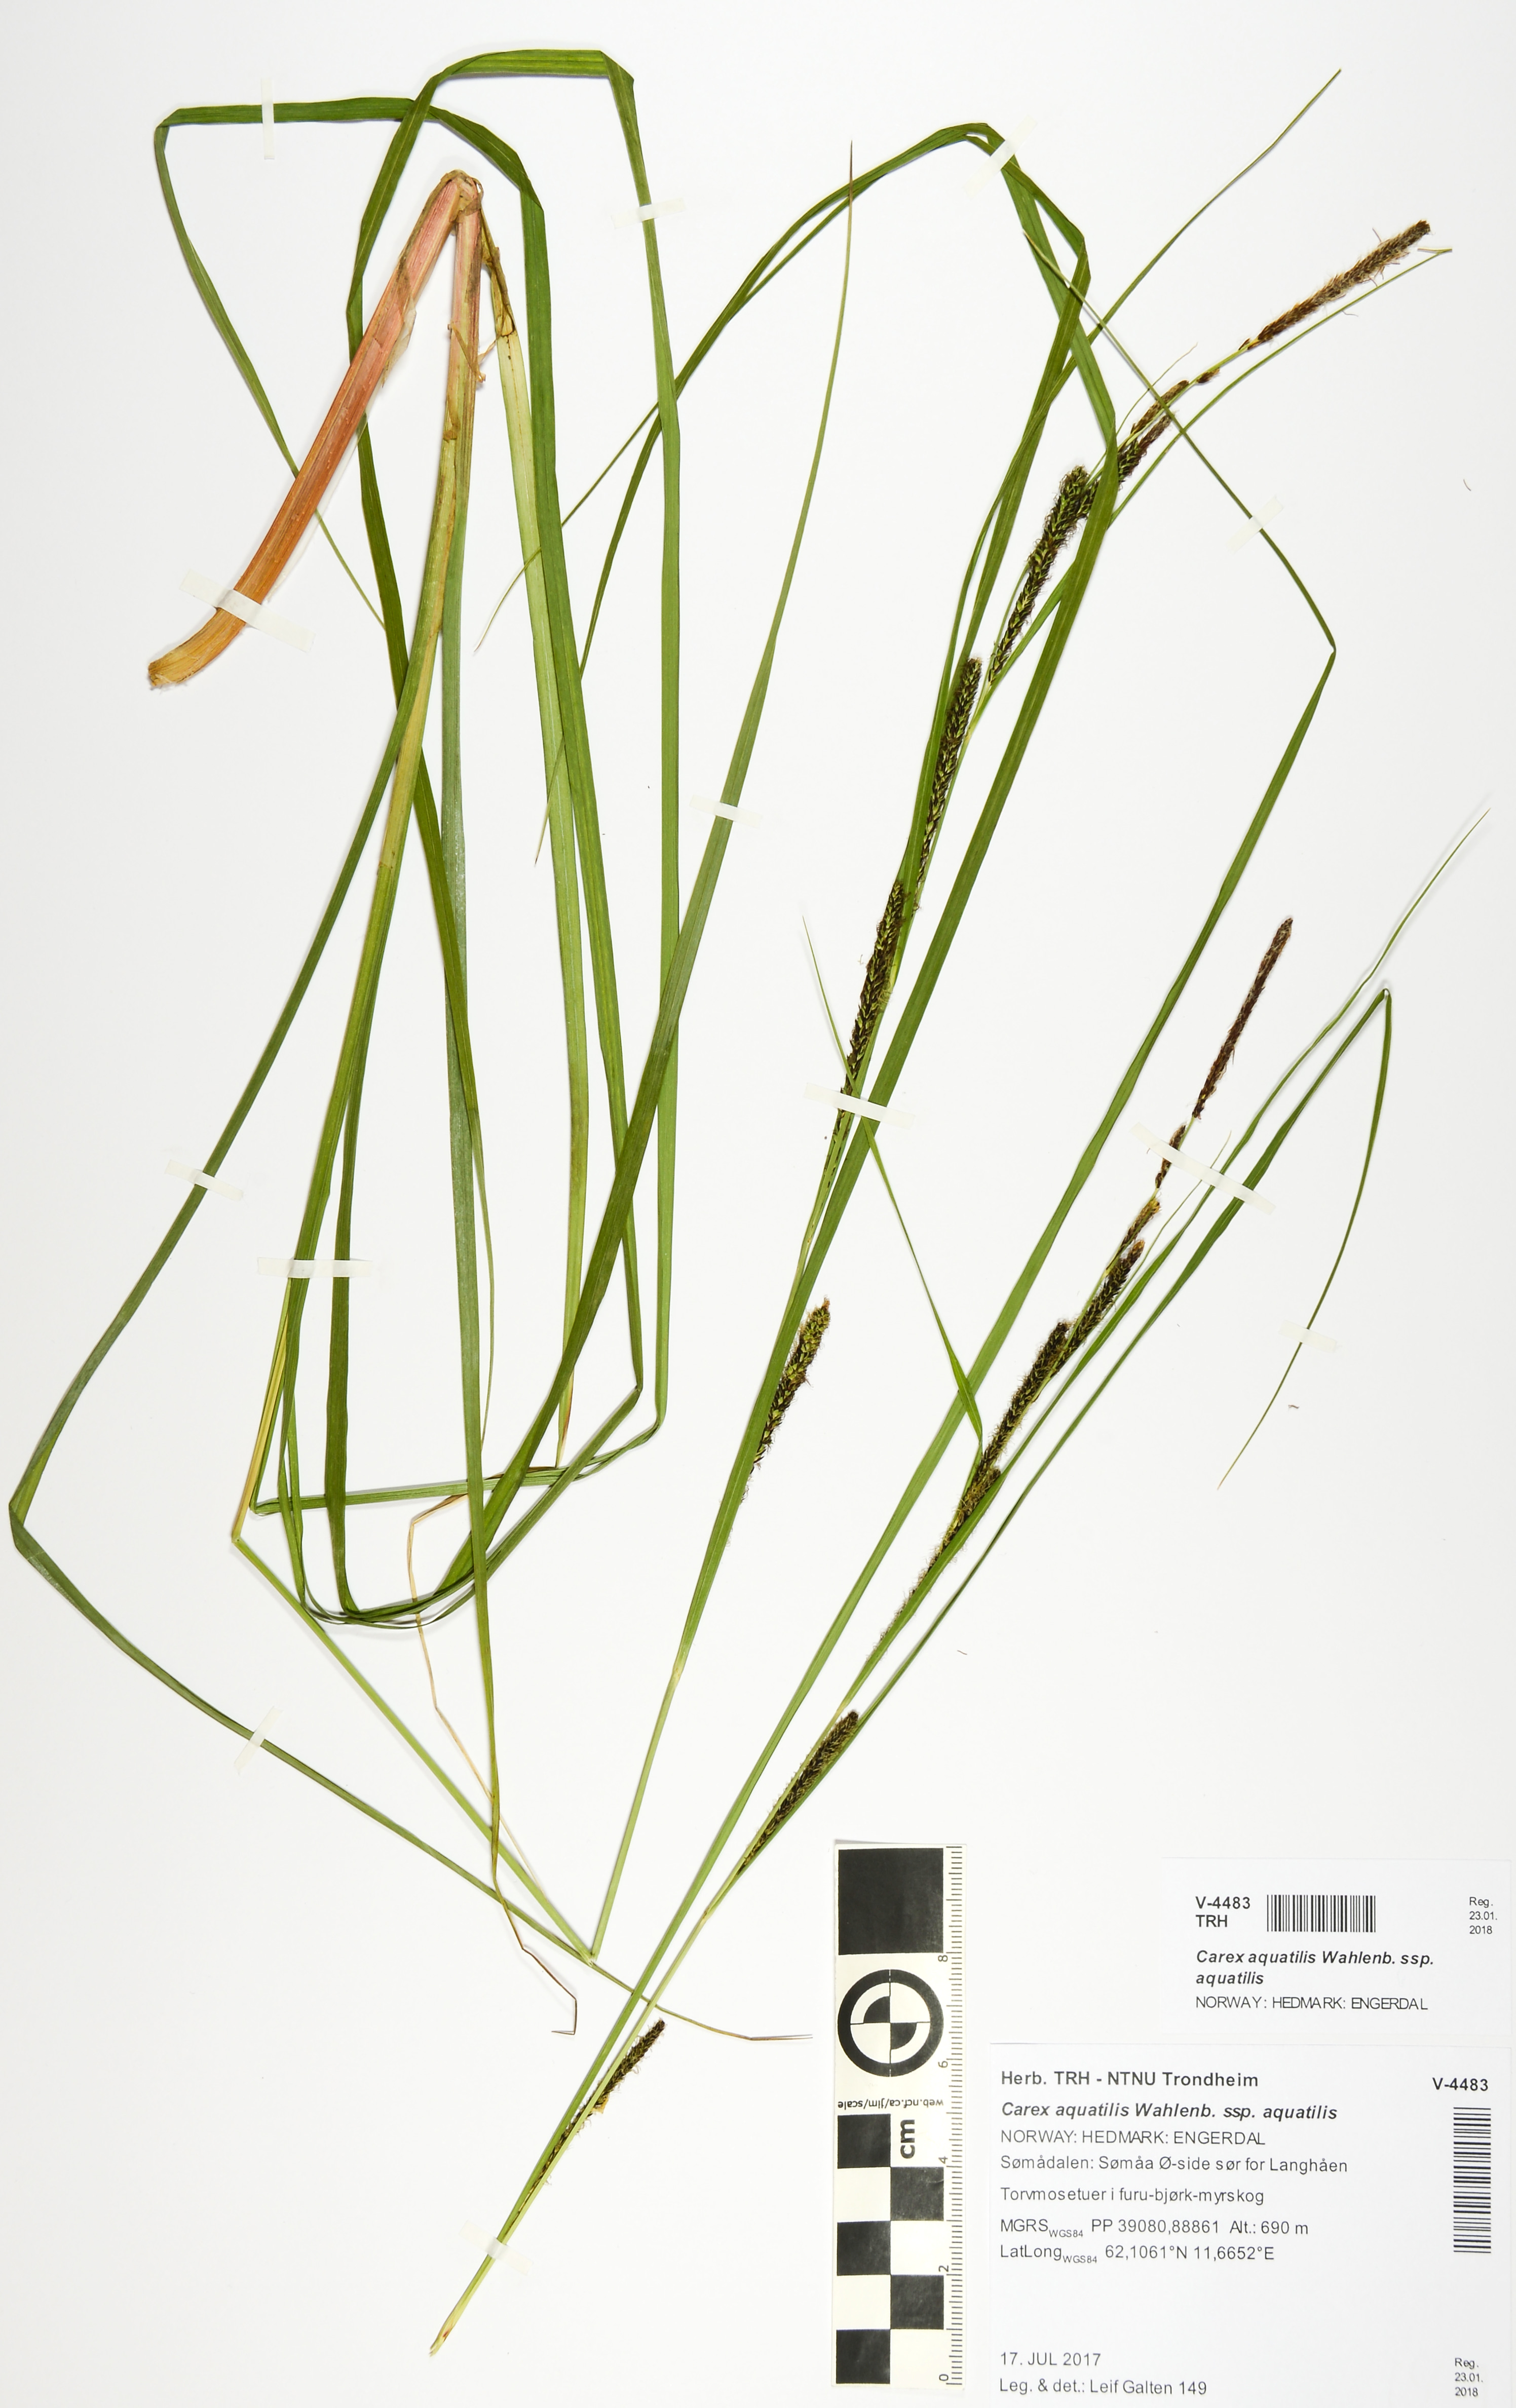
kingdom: Plantae
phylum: Tracheophyta
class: Liliopsida
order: Poales
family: Cyperaceae
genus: Carex
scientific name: Carex aquatilis
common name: Water sedge
